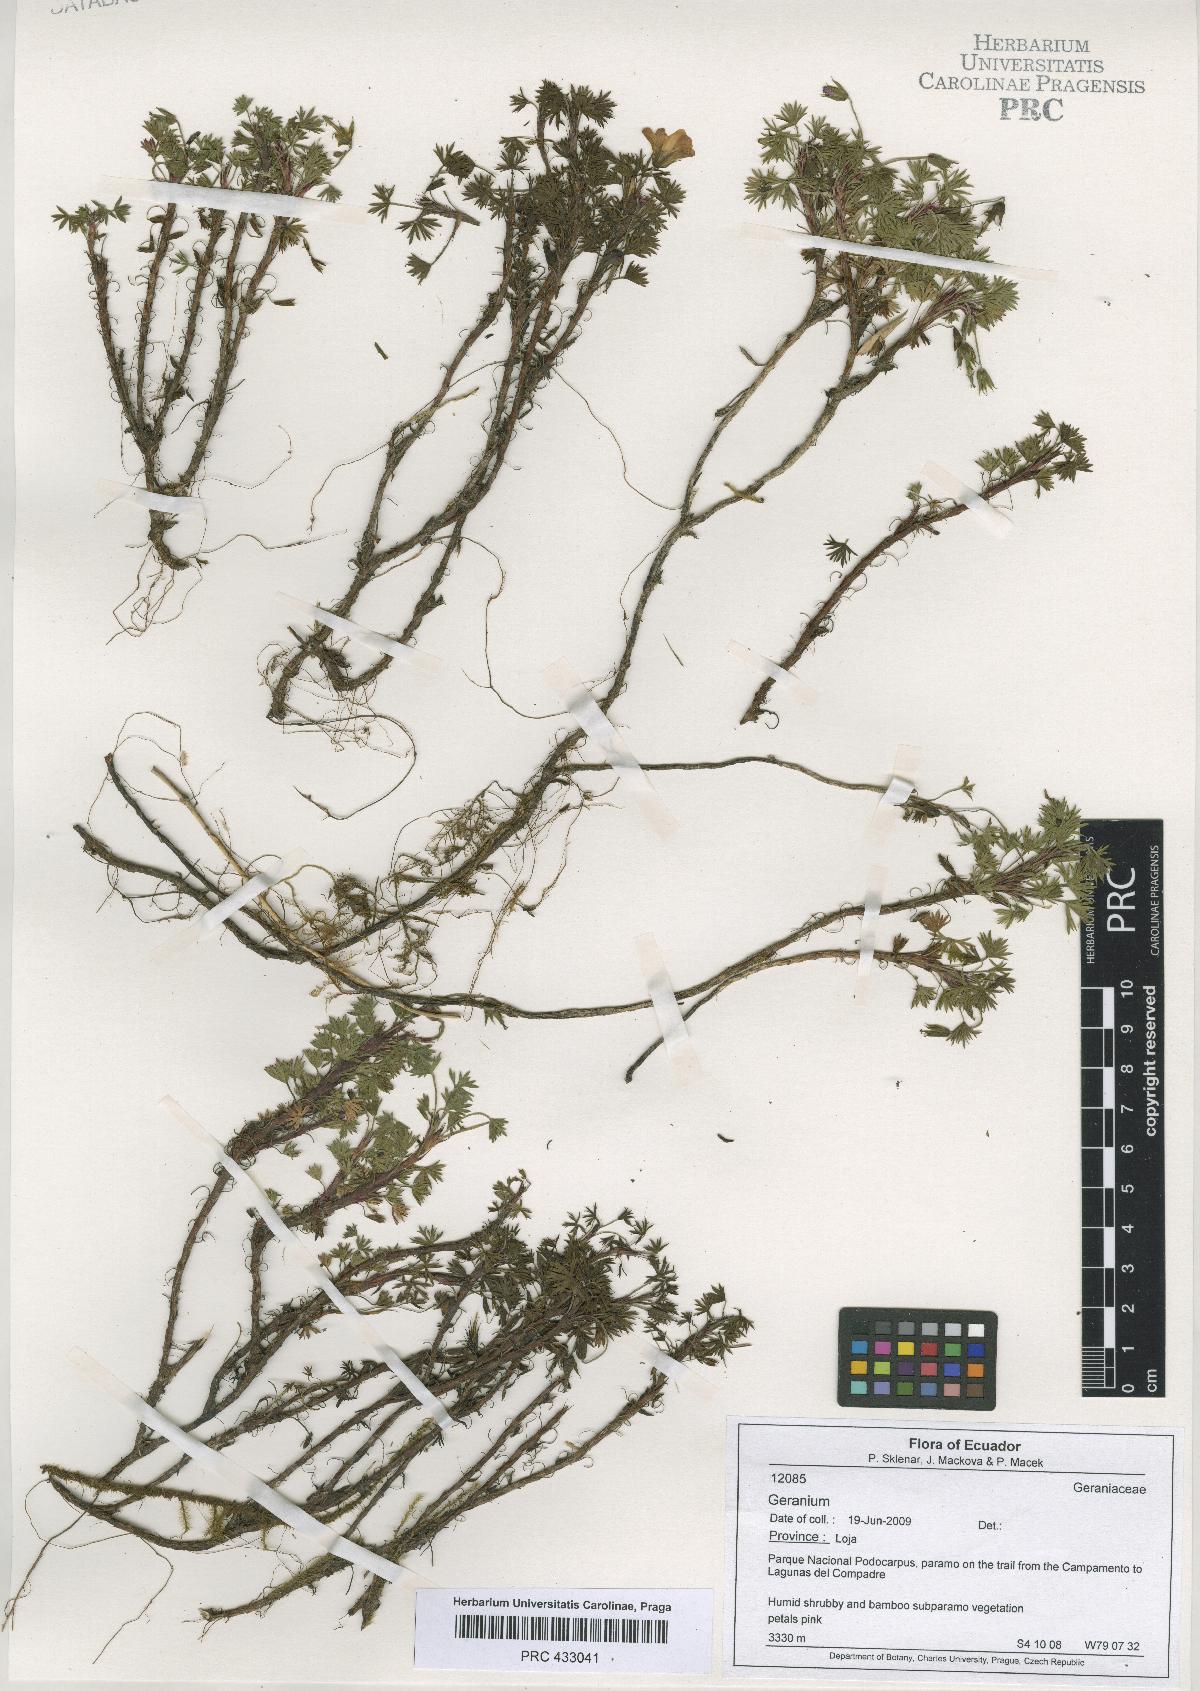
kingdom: Plantae
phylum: Tracheophyta
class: Magnoliopsida
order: Geraniales
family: Geraniaceae
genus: Geranium
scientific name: Geranium loxense
